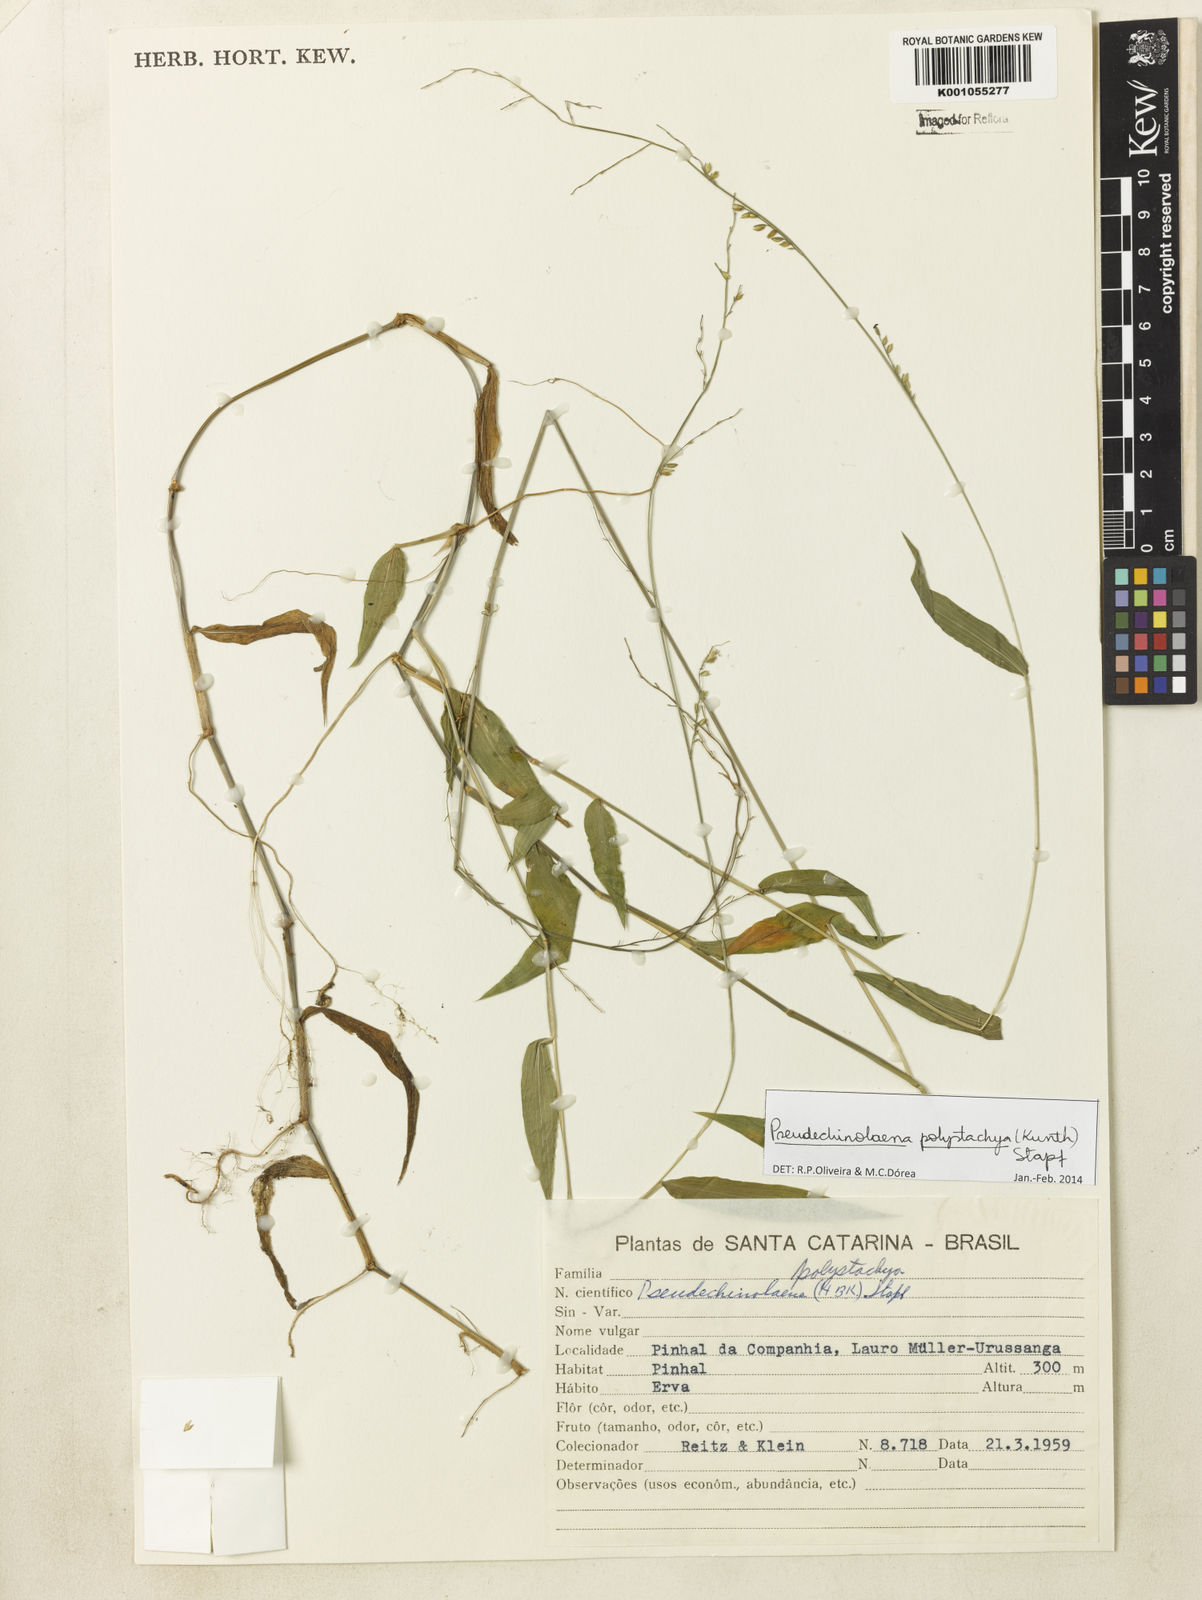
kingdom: Plantae
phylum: Tracheophyta
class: Liliopsida
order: Poales
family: Poaceae
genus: Pseudechinolaena
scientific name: Pseudechinolaena polystachya
